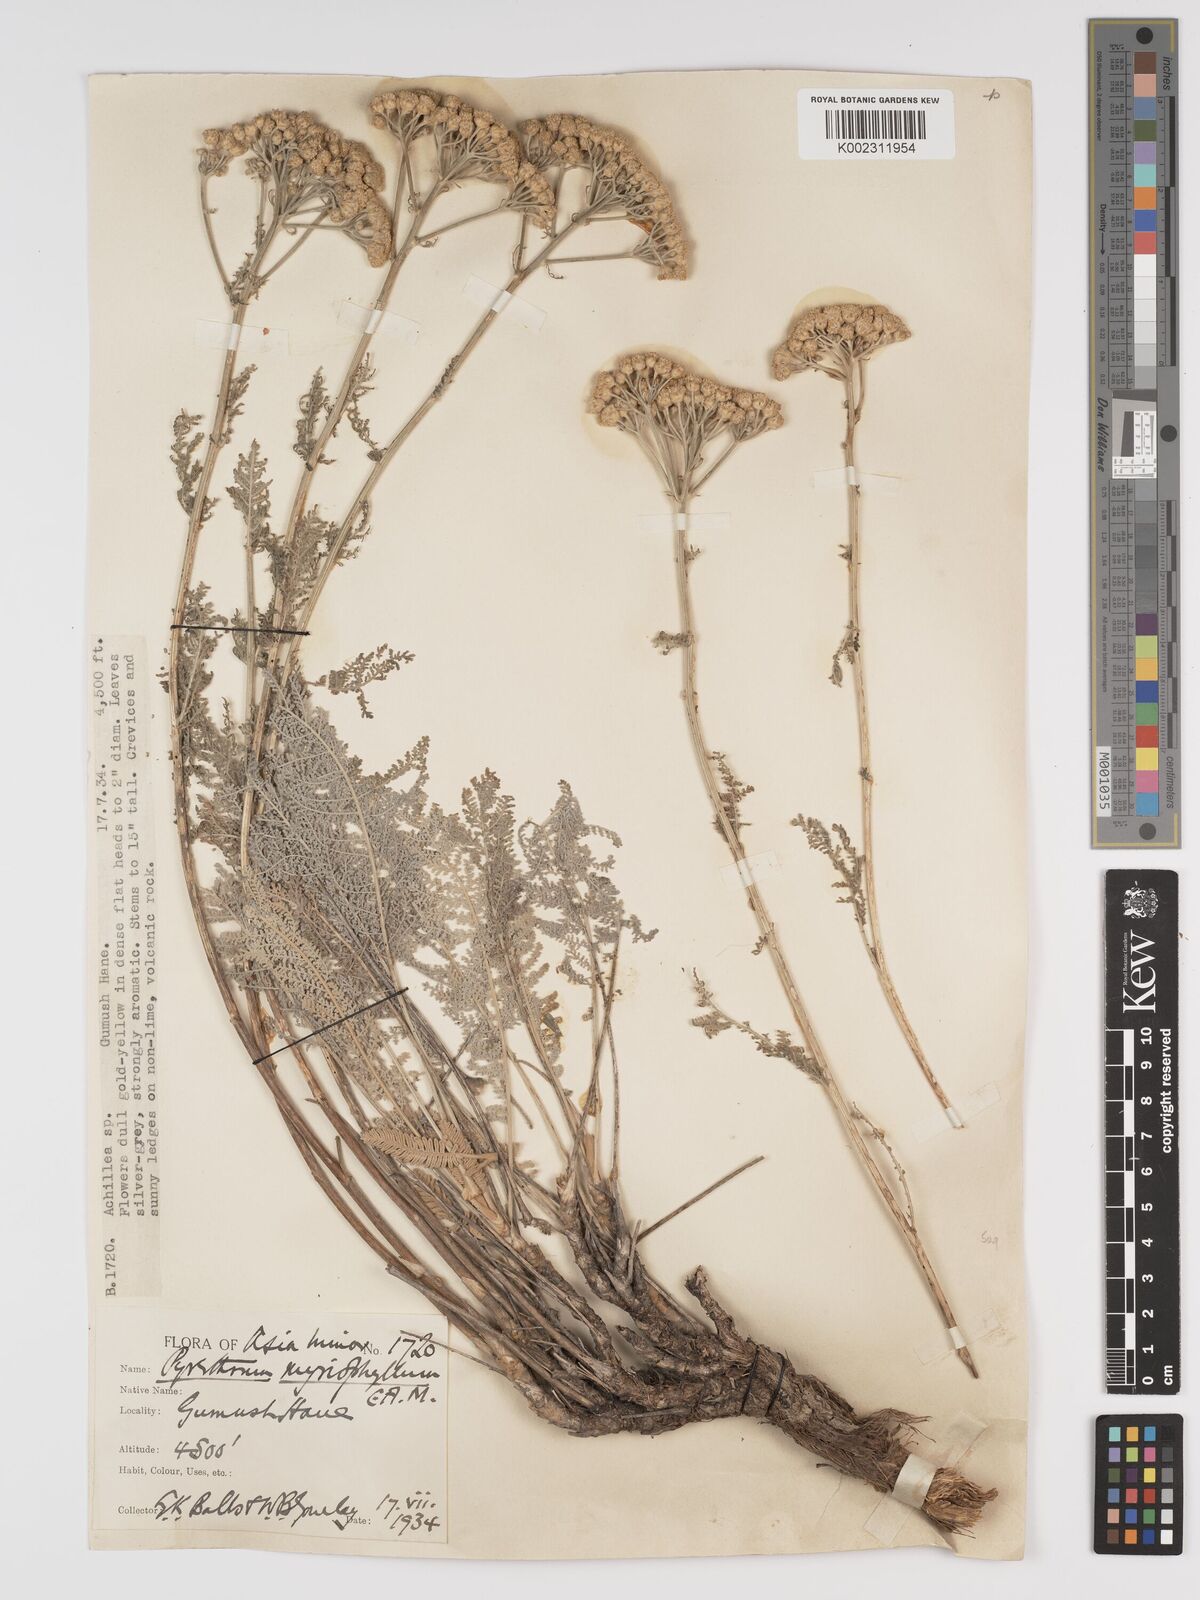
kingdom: Plantae
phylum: Tracheophyta
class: Magnoliopsida
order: Asterales
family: Asteraceae
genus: Tanacetum
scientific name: Tanacetum polycephalum
